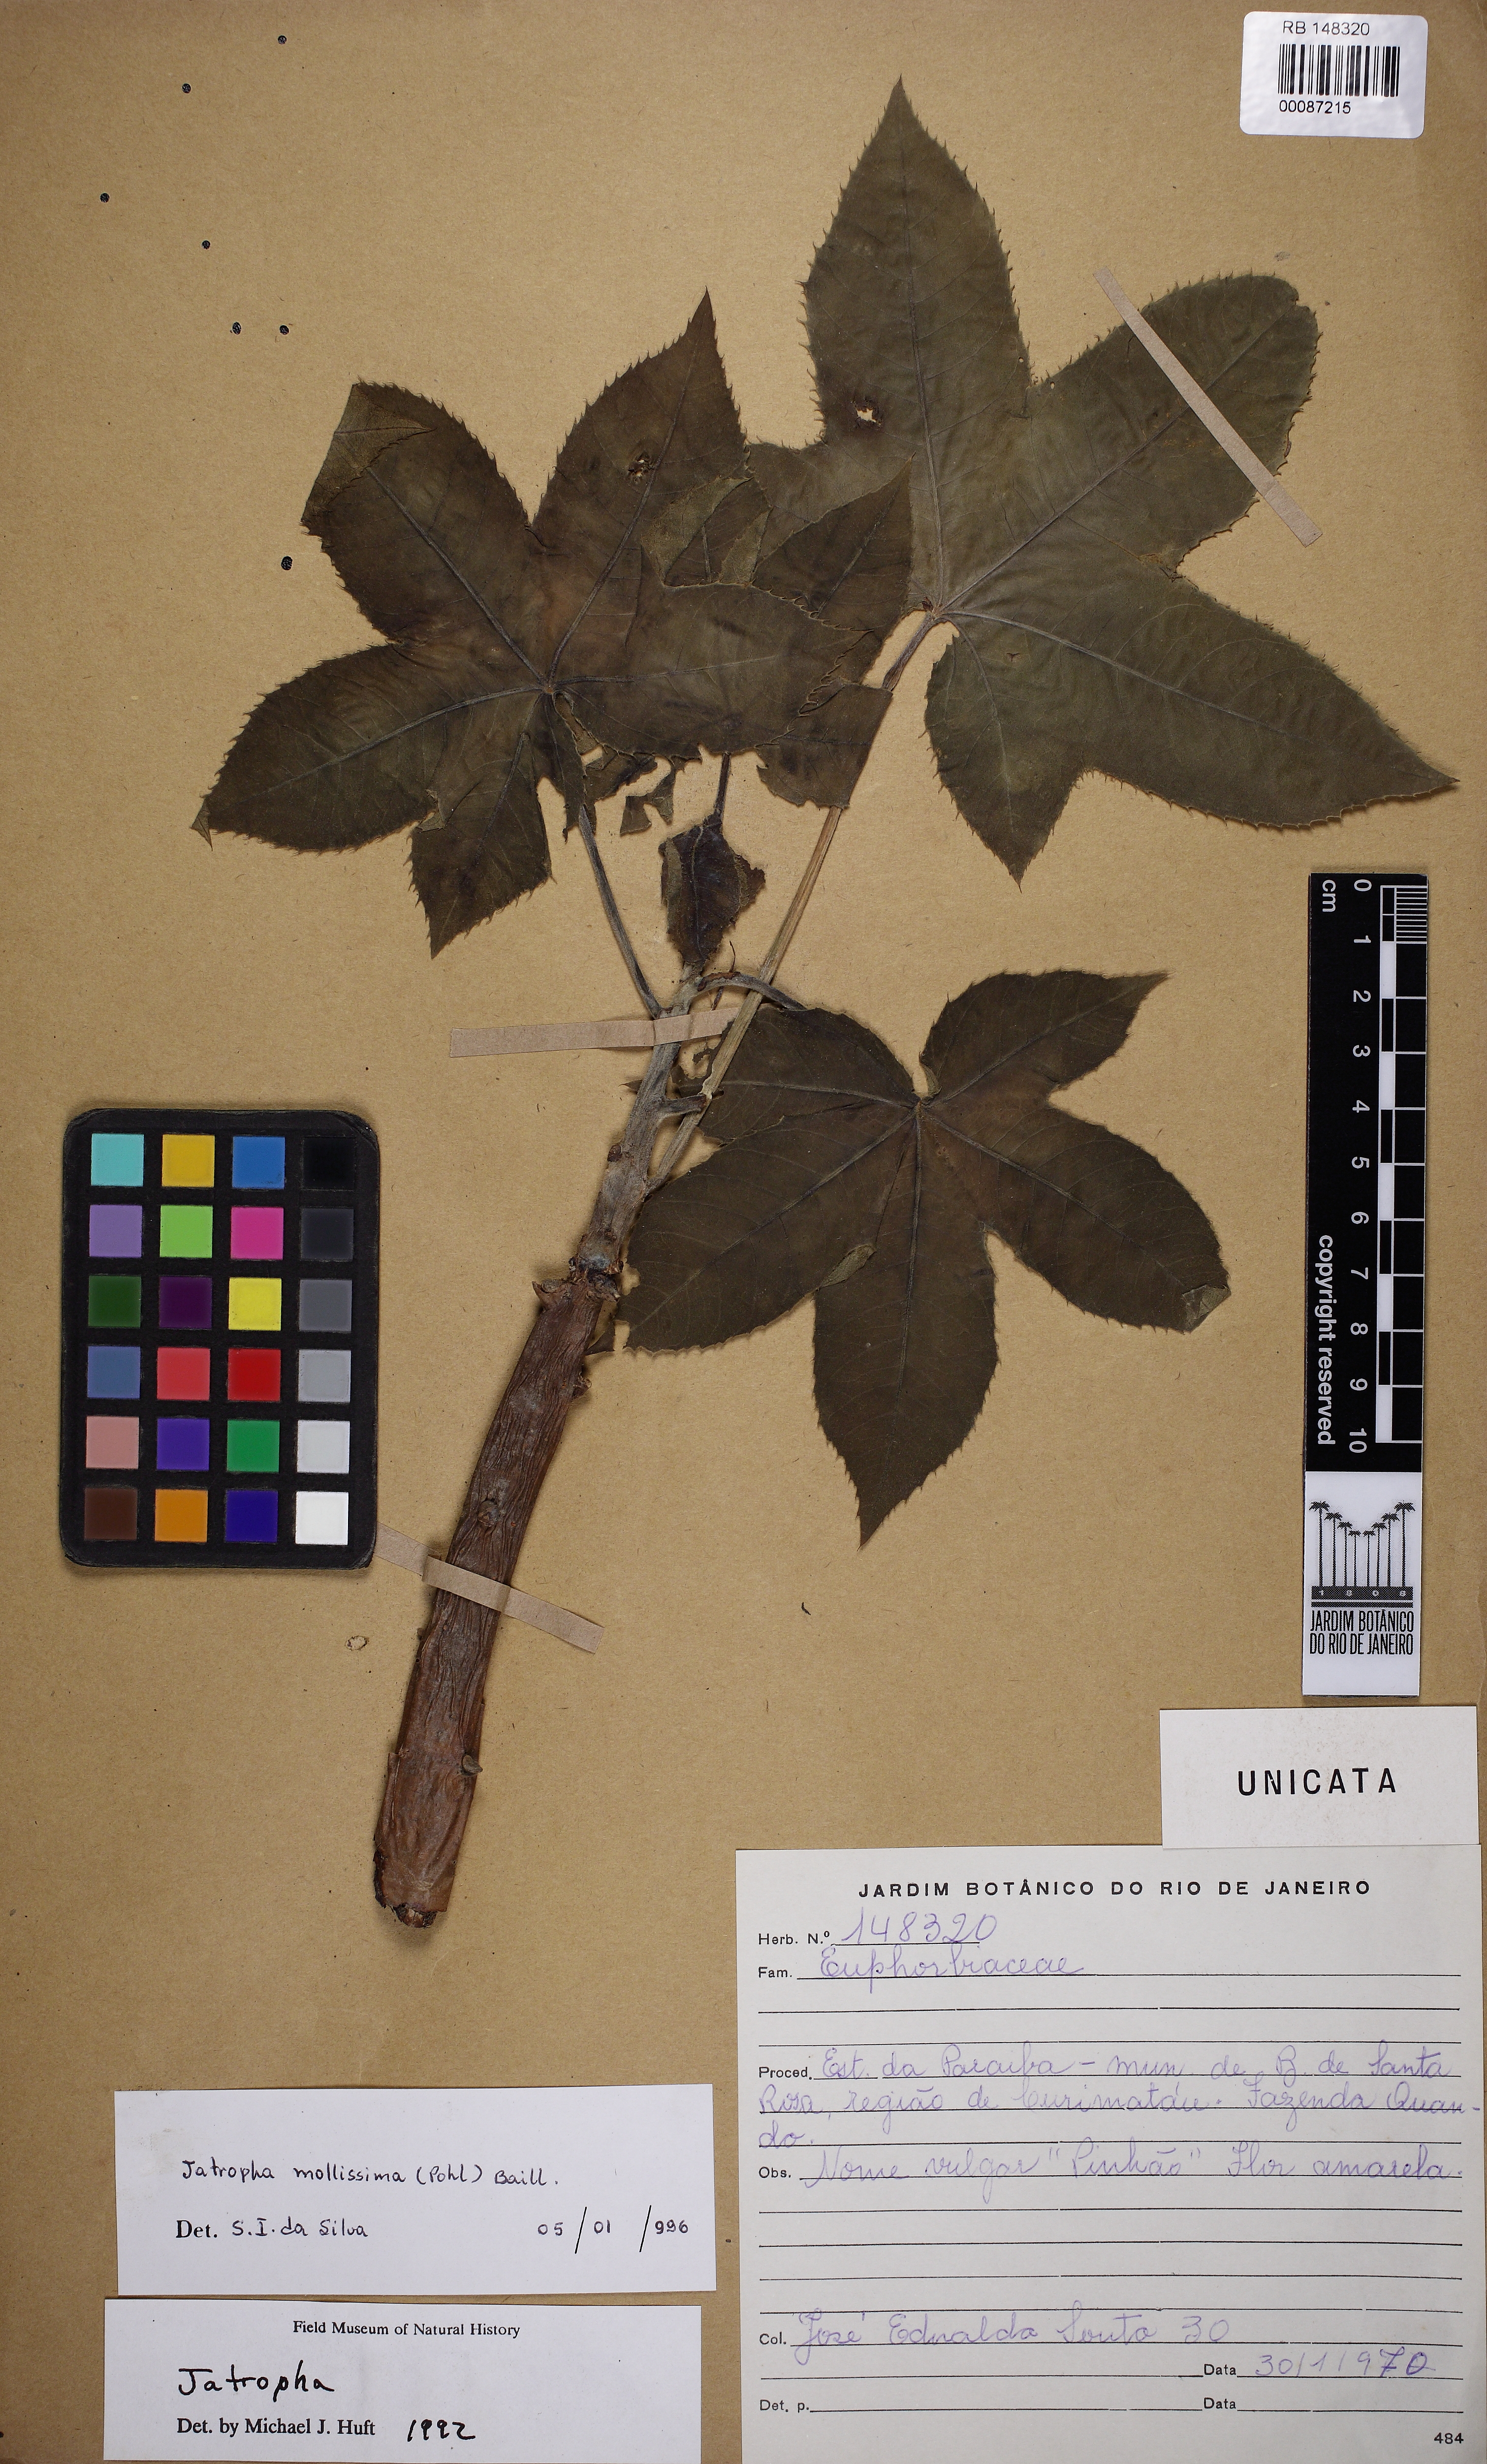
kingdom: Plantae
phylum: Tracheophyta
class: Magnoliopsida
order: Malpighiales
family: Euphorbiaceae
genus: Jatropha
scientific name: Jatropha mollissima
